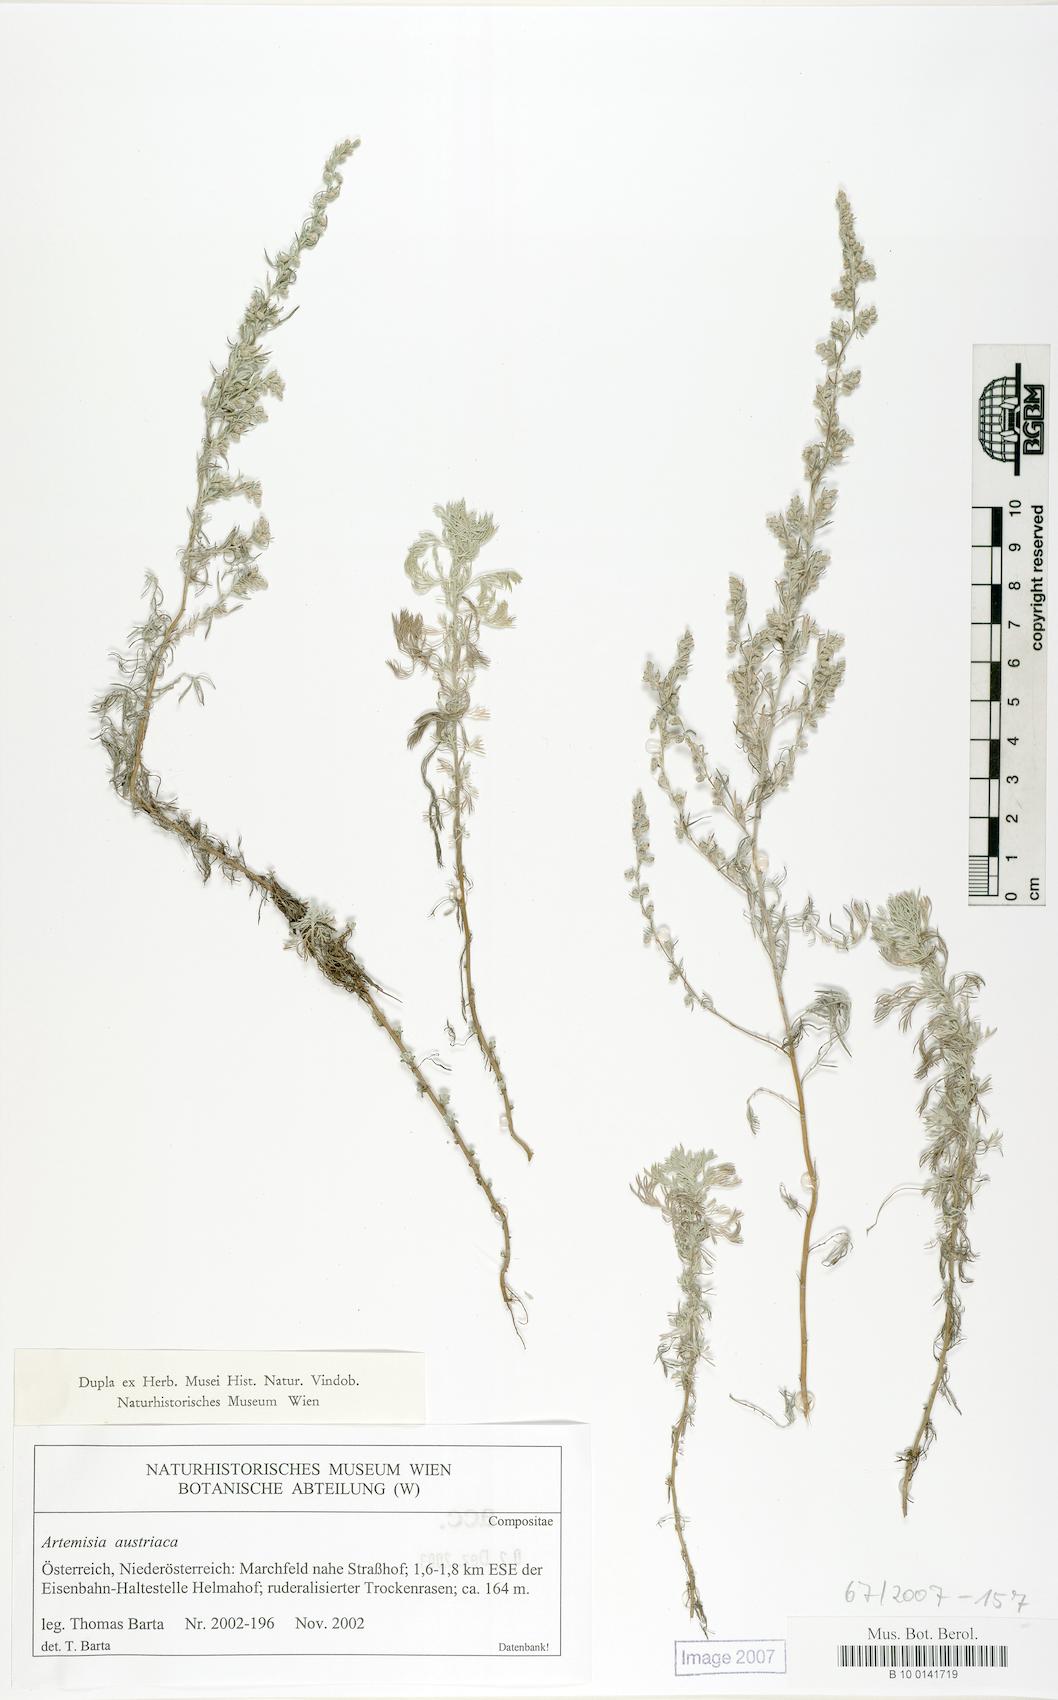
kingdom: Plantae
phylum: Tracheophyta
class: Magnoliopsida
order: Asterales
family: Asteraceae
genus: Artemisia
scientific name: Artemisia austriaca
